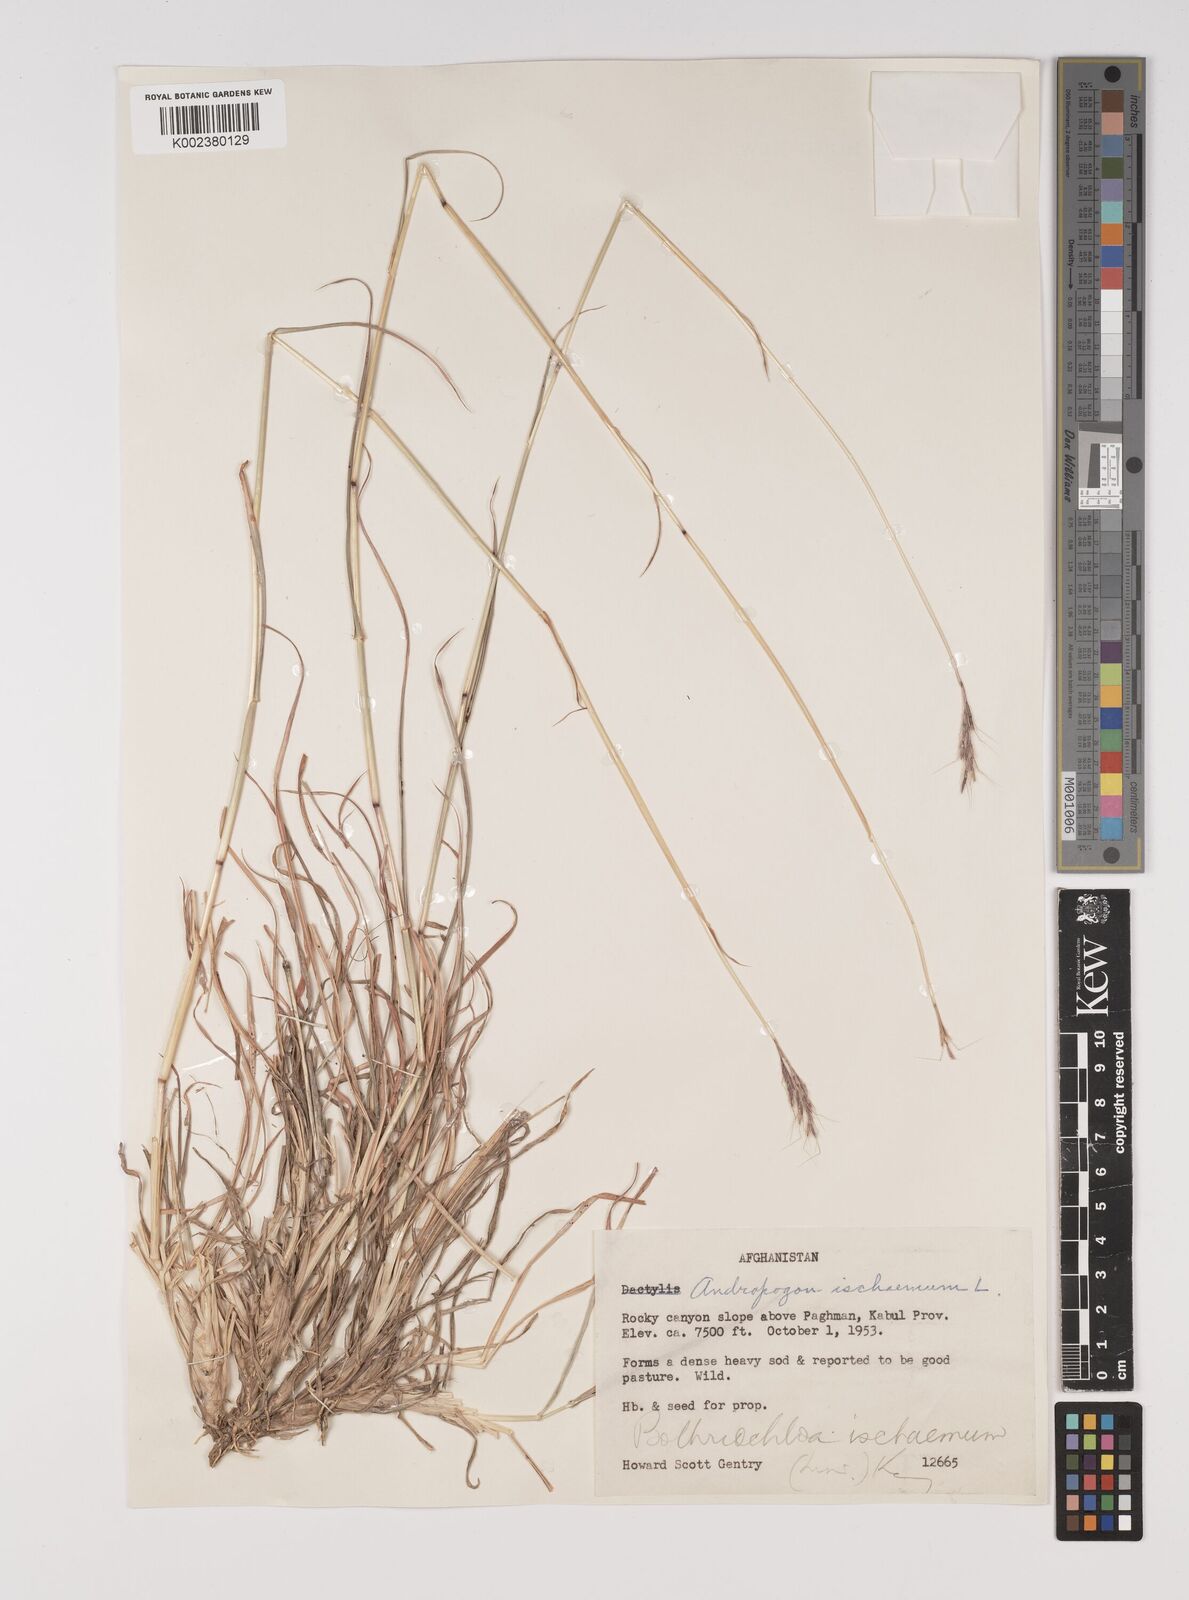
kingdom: Plantae
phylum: Tracheophyta
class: Liliopsida
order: Poales
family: Poaceae
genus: Bothriochloa
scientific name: Bothriochloa ischaemum
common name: Yellow bluestem
